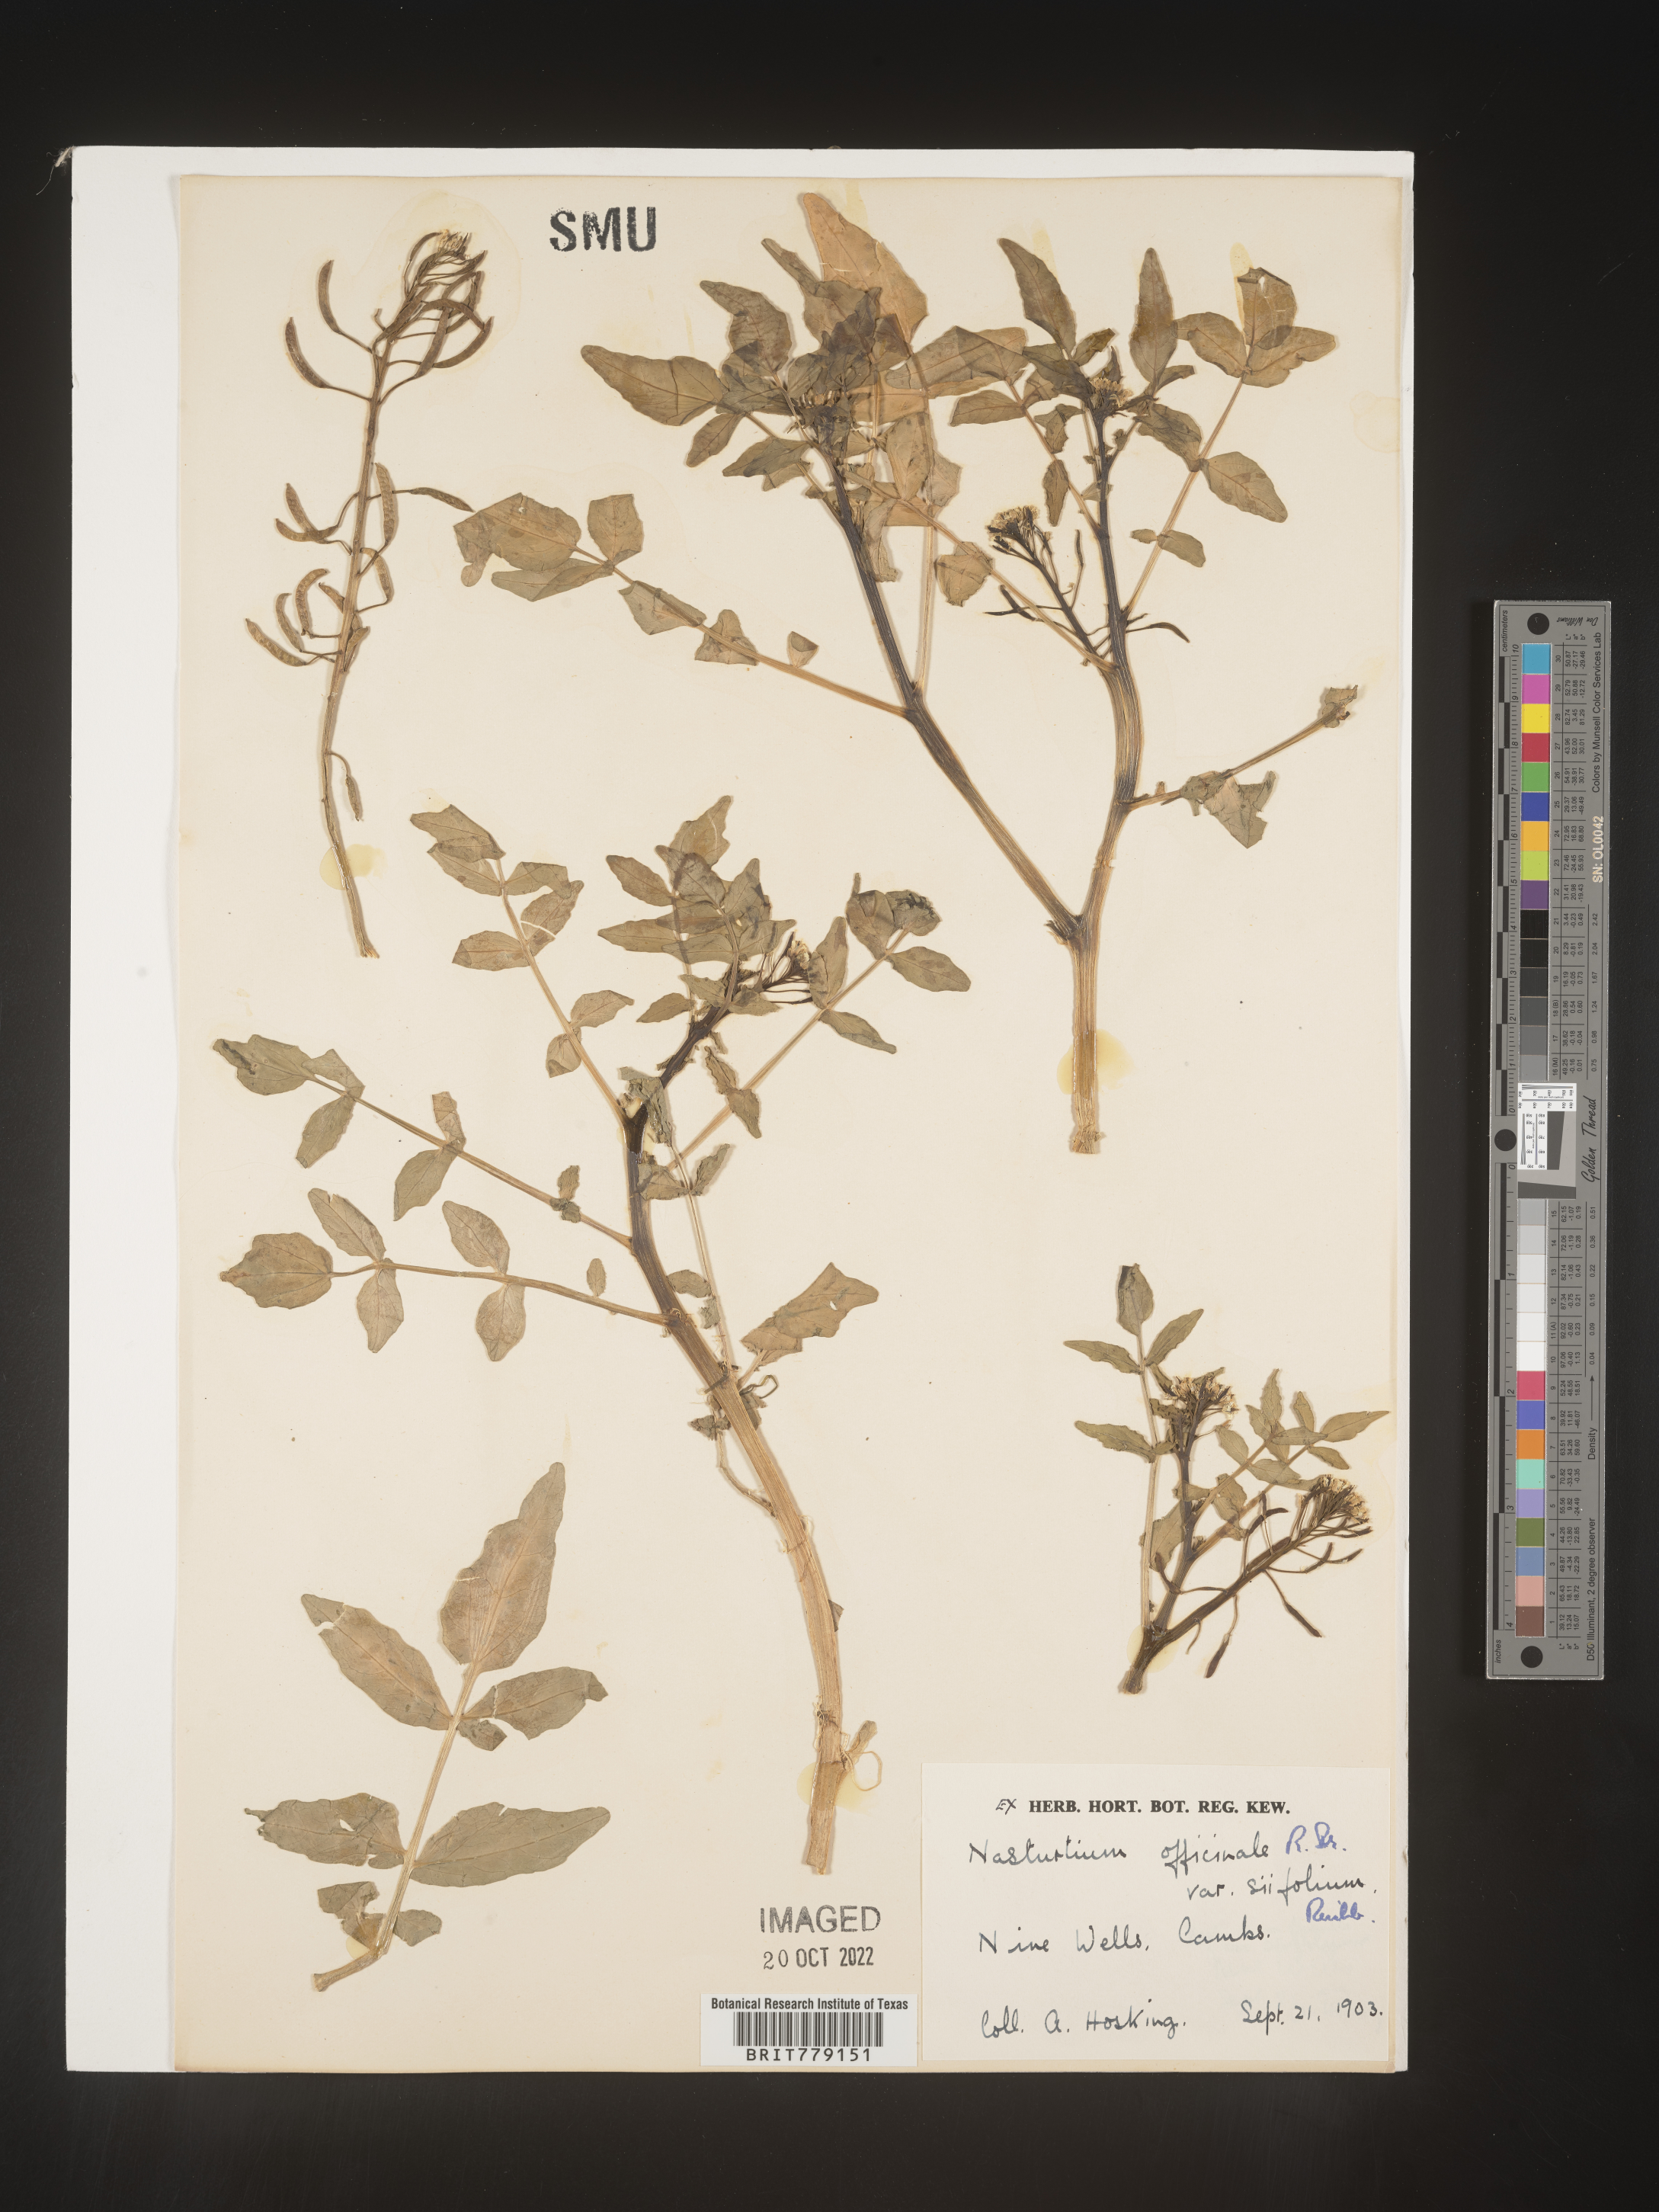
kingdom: Plantae
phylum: Tracheophyta
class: Magnoliopsida
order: Brassicales
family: Brassicaceae
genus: Rorippa
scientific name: Rorippa
